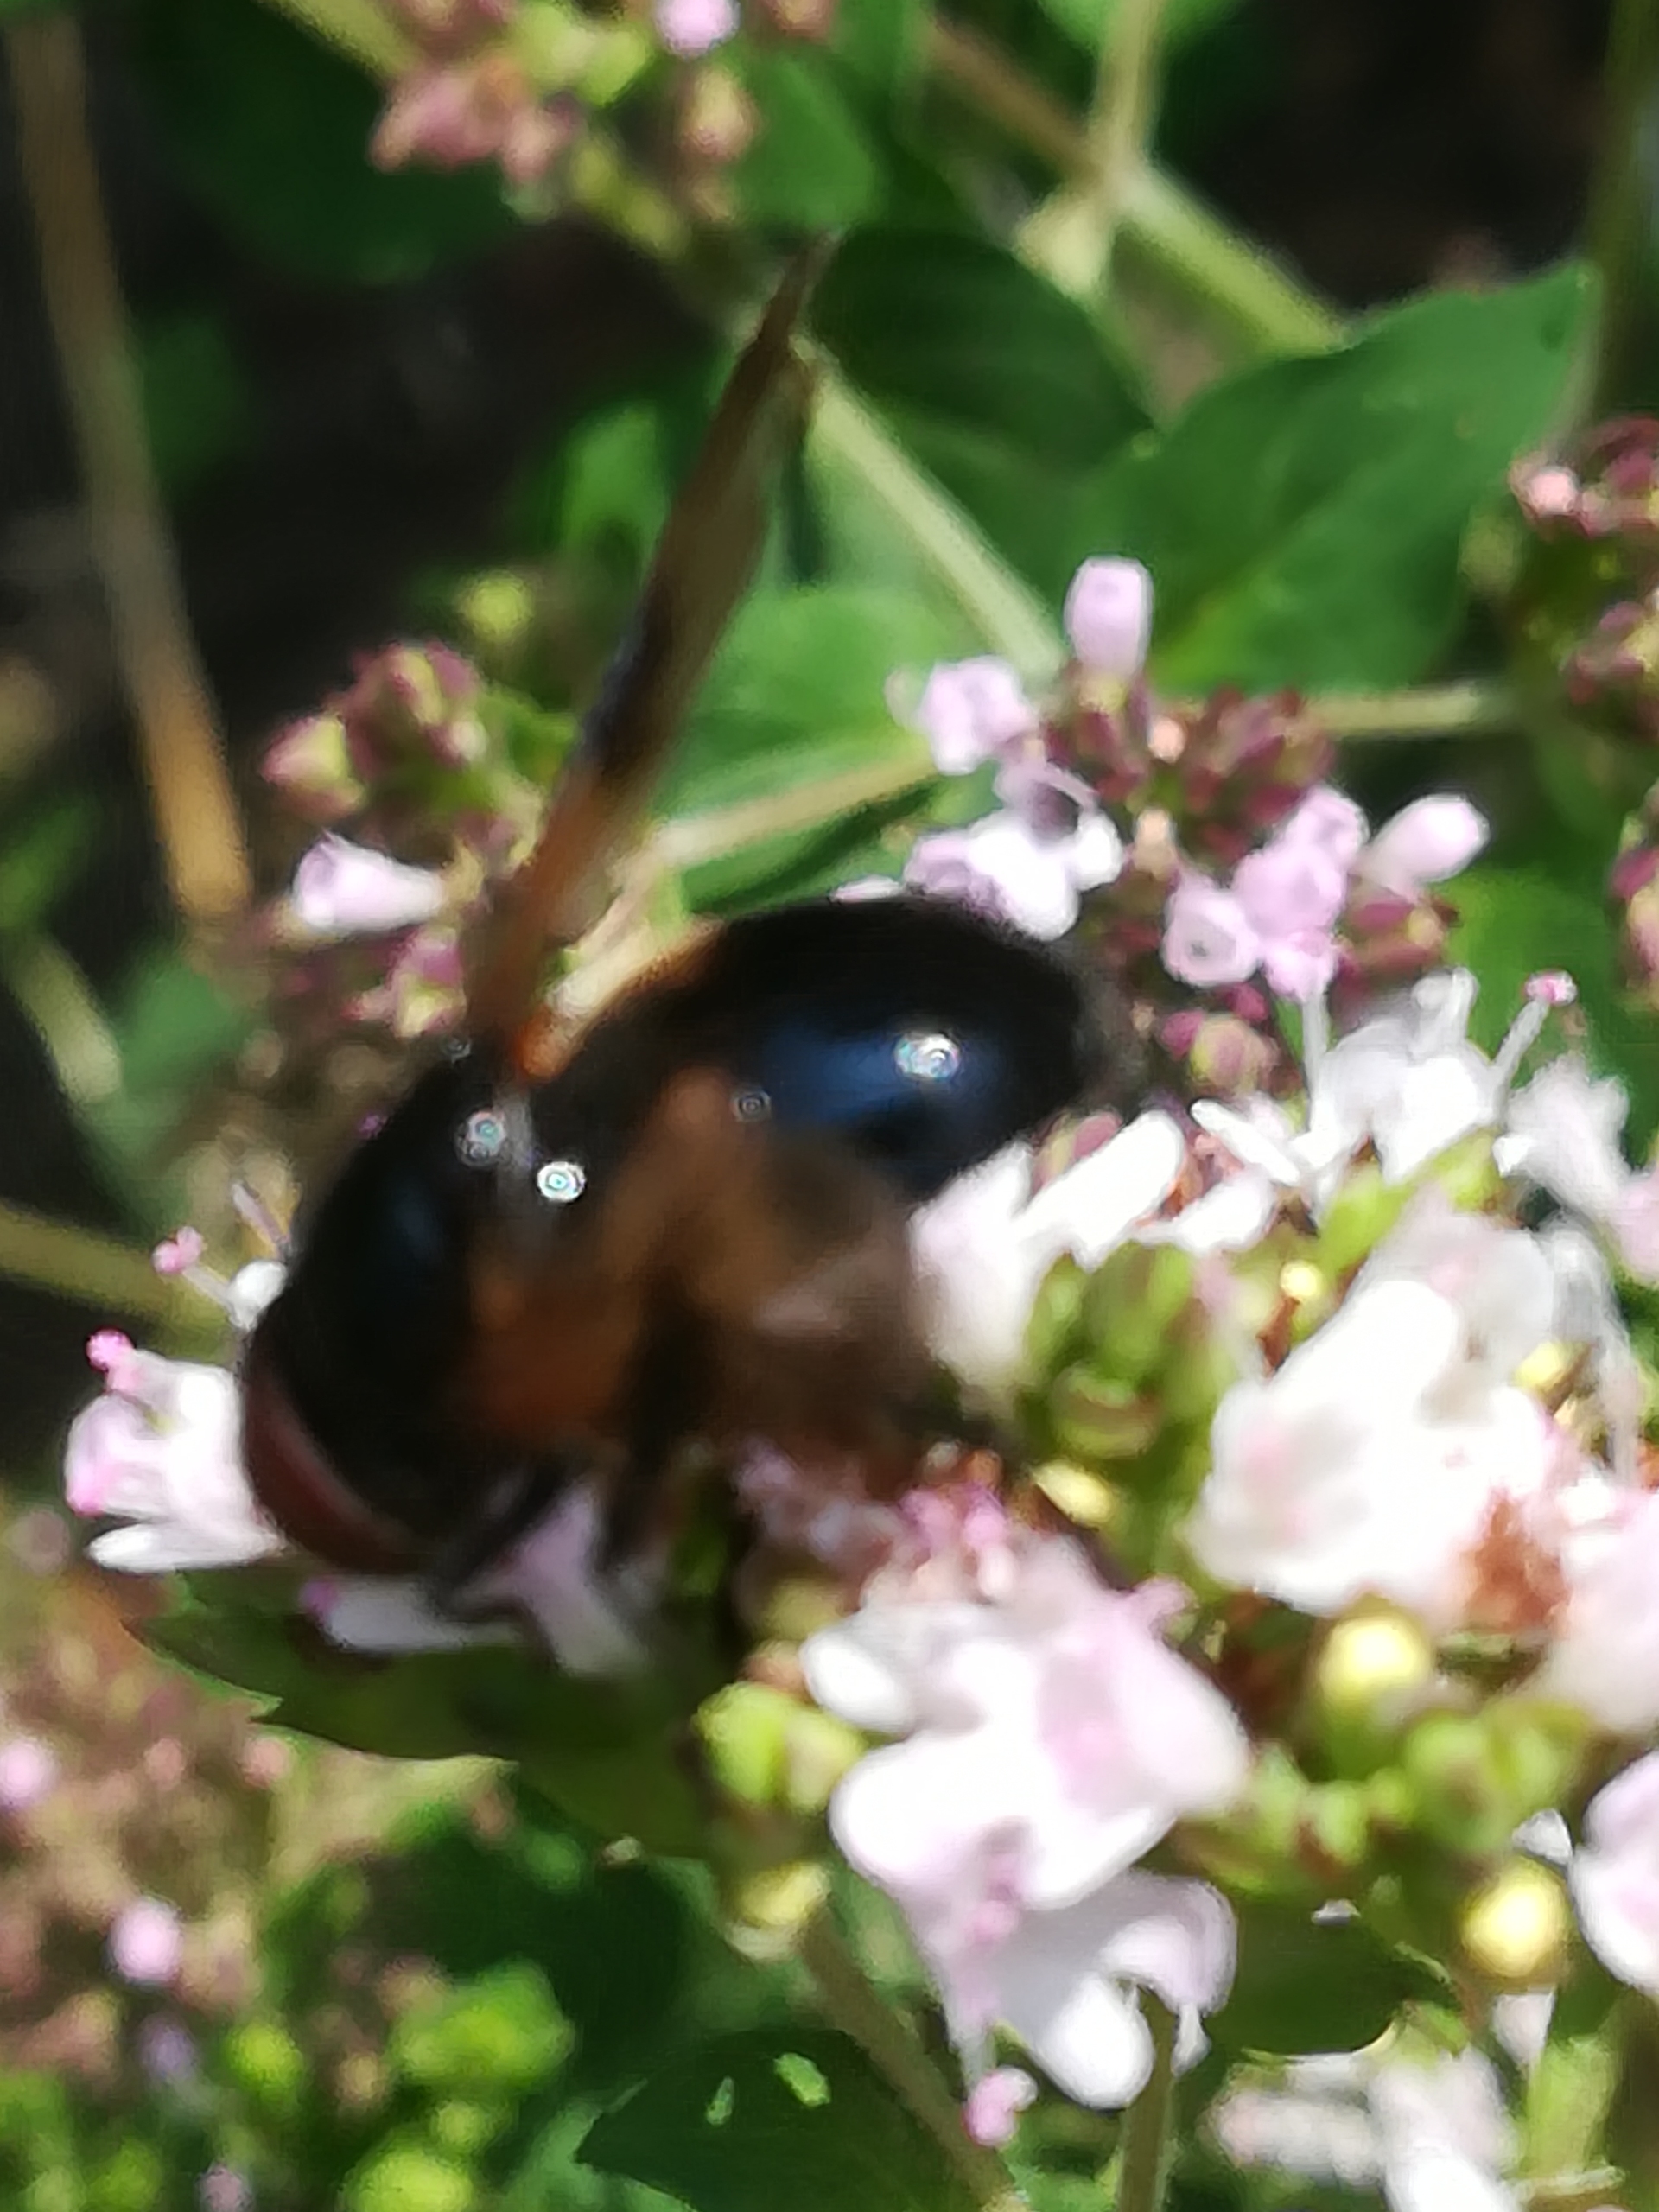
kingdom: Animalia
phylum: Arthropoda
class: Insecta
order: Diptera
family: Syrphidae
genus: Volucella
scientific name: Volucella pellucens
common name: Hvidbåndet humlesvirreflue
